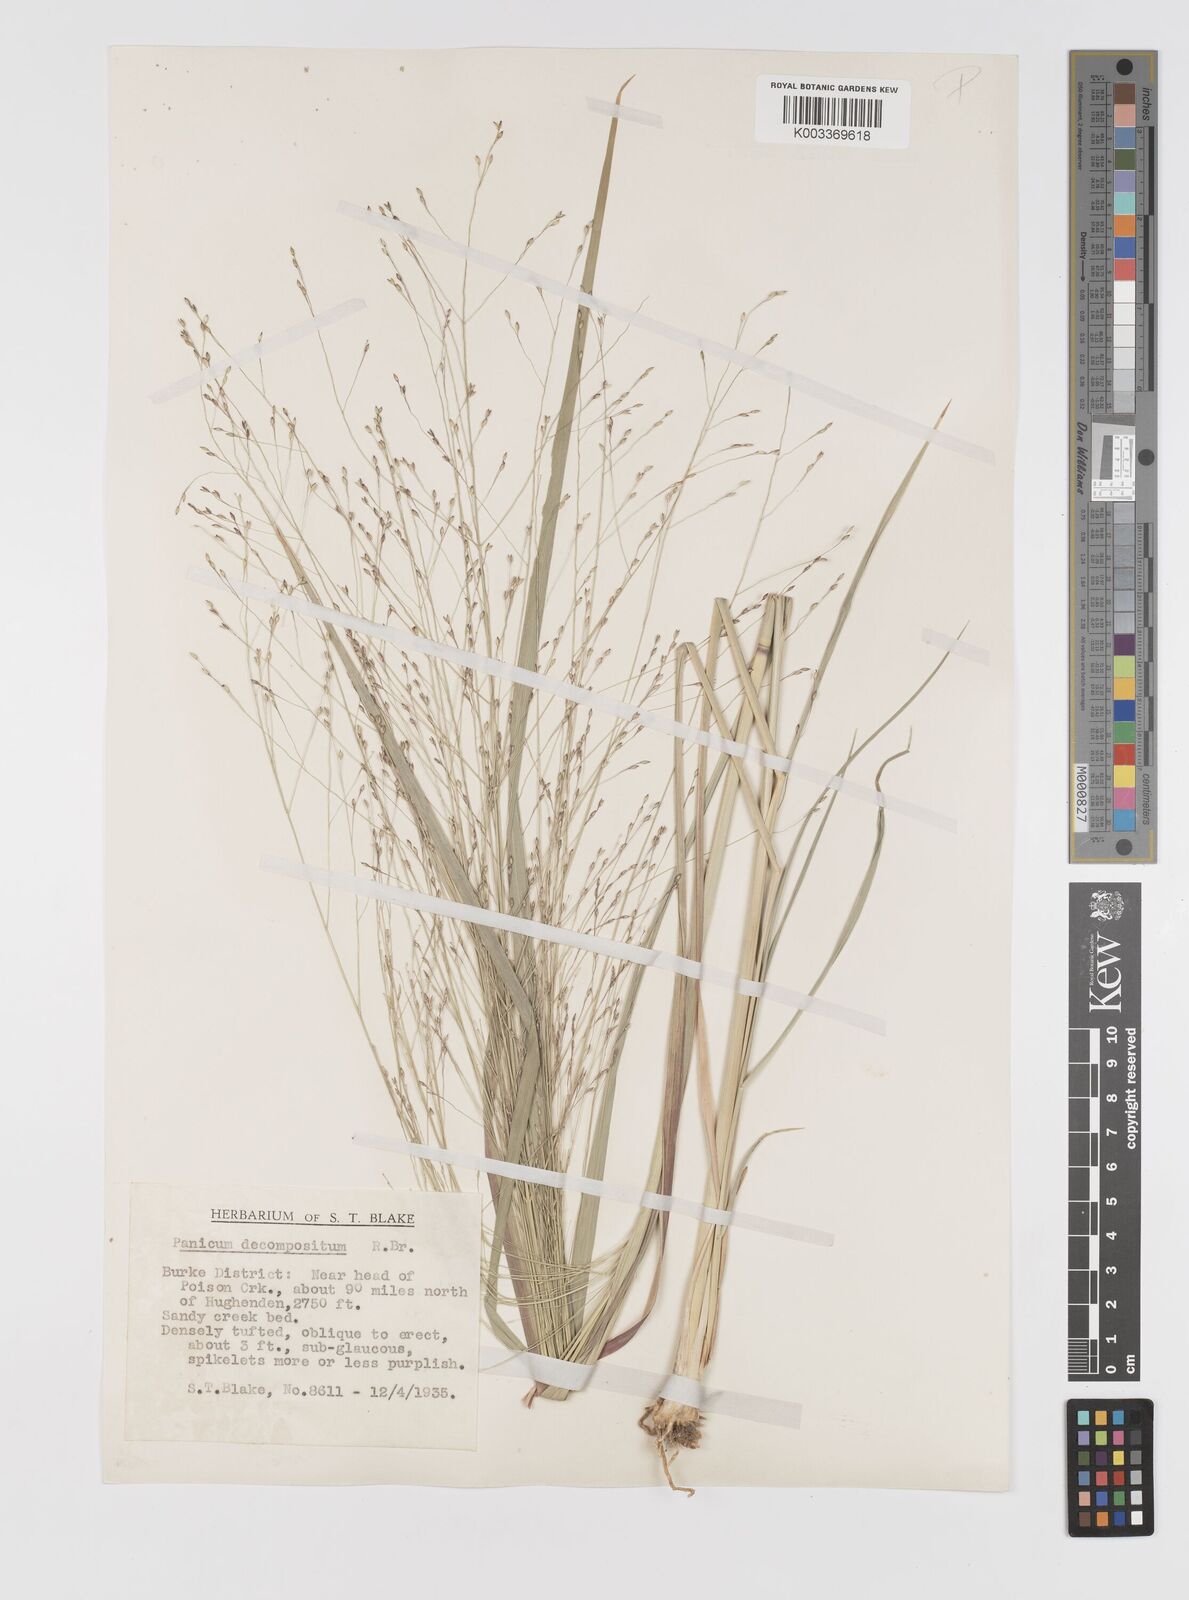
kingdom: Plantae
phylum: Tracheophyta
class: Liliopsida
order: Poales
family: Poaceae
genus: Panicum
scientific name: Panicum decompositum
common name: Australian millet
